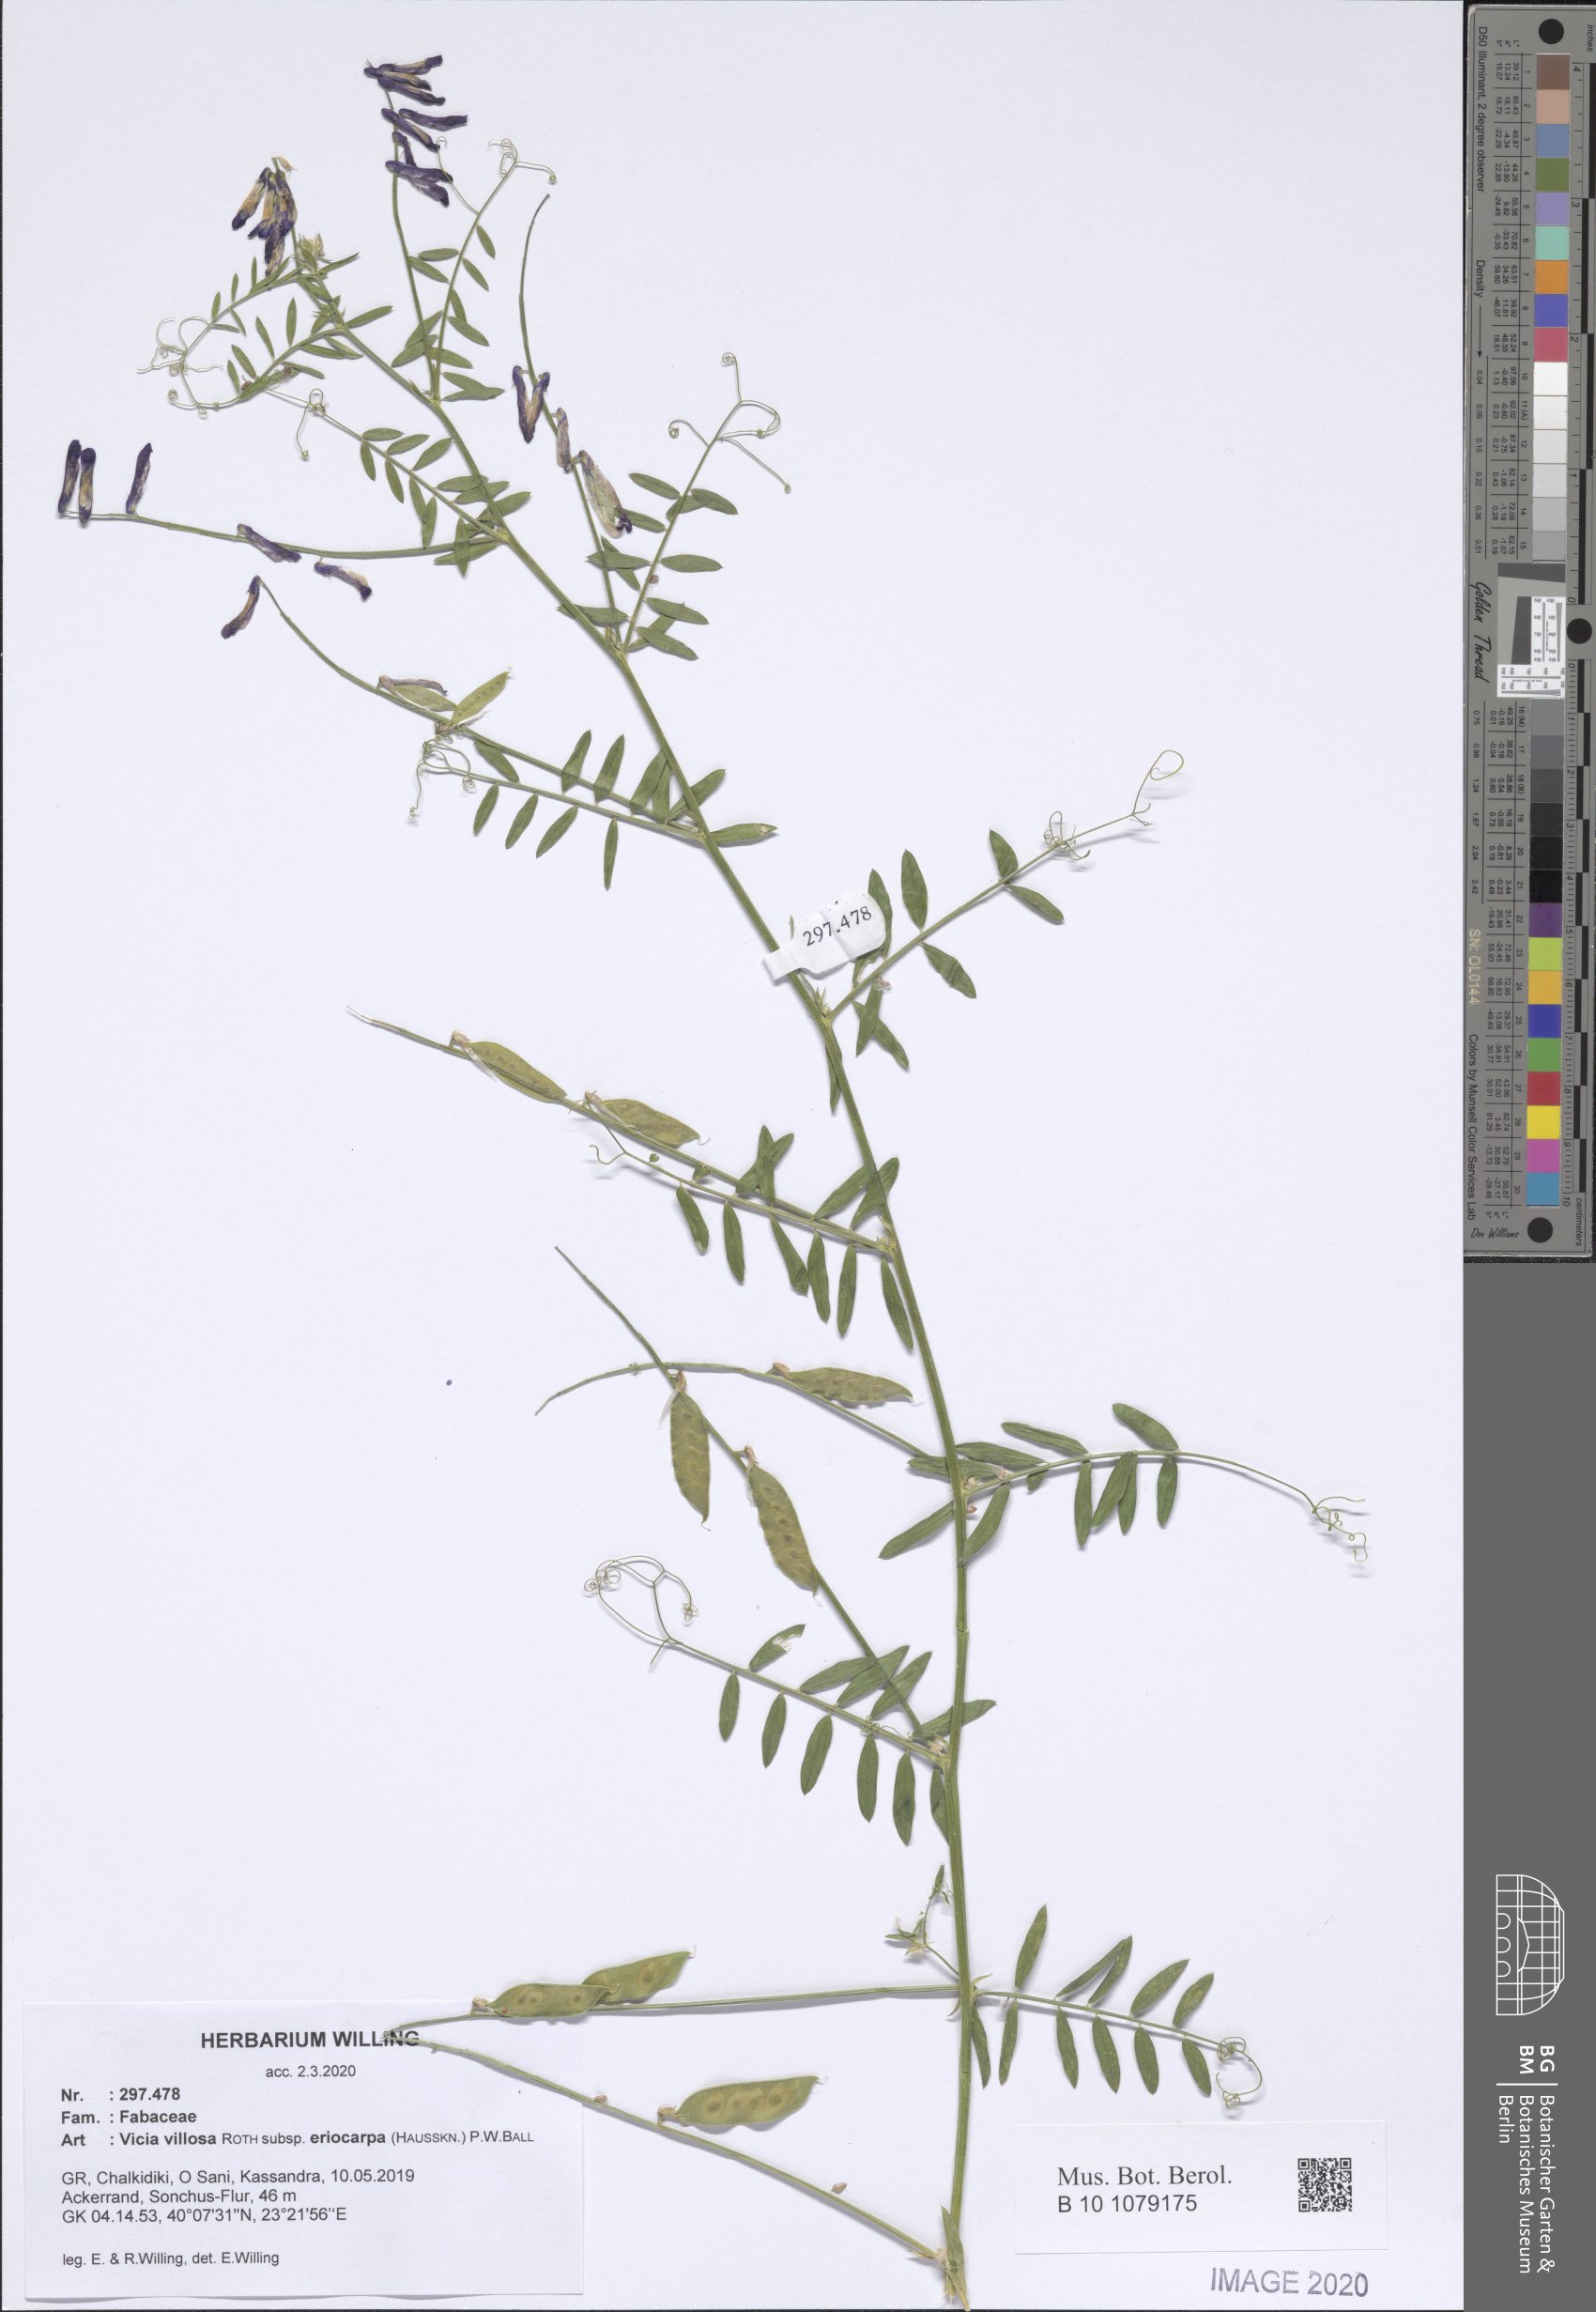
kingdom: Plantae
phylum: Tracheophyta
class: Magnoliopsida
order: Fabales
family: Fabaceae
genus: Vicia
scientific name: Vicia eriocarpa
